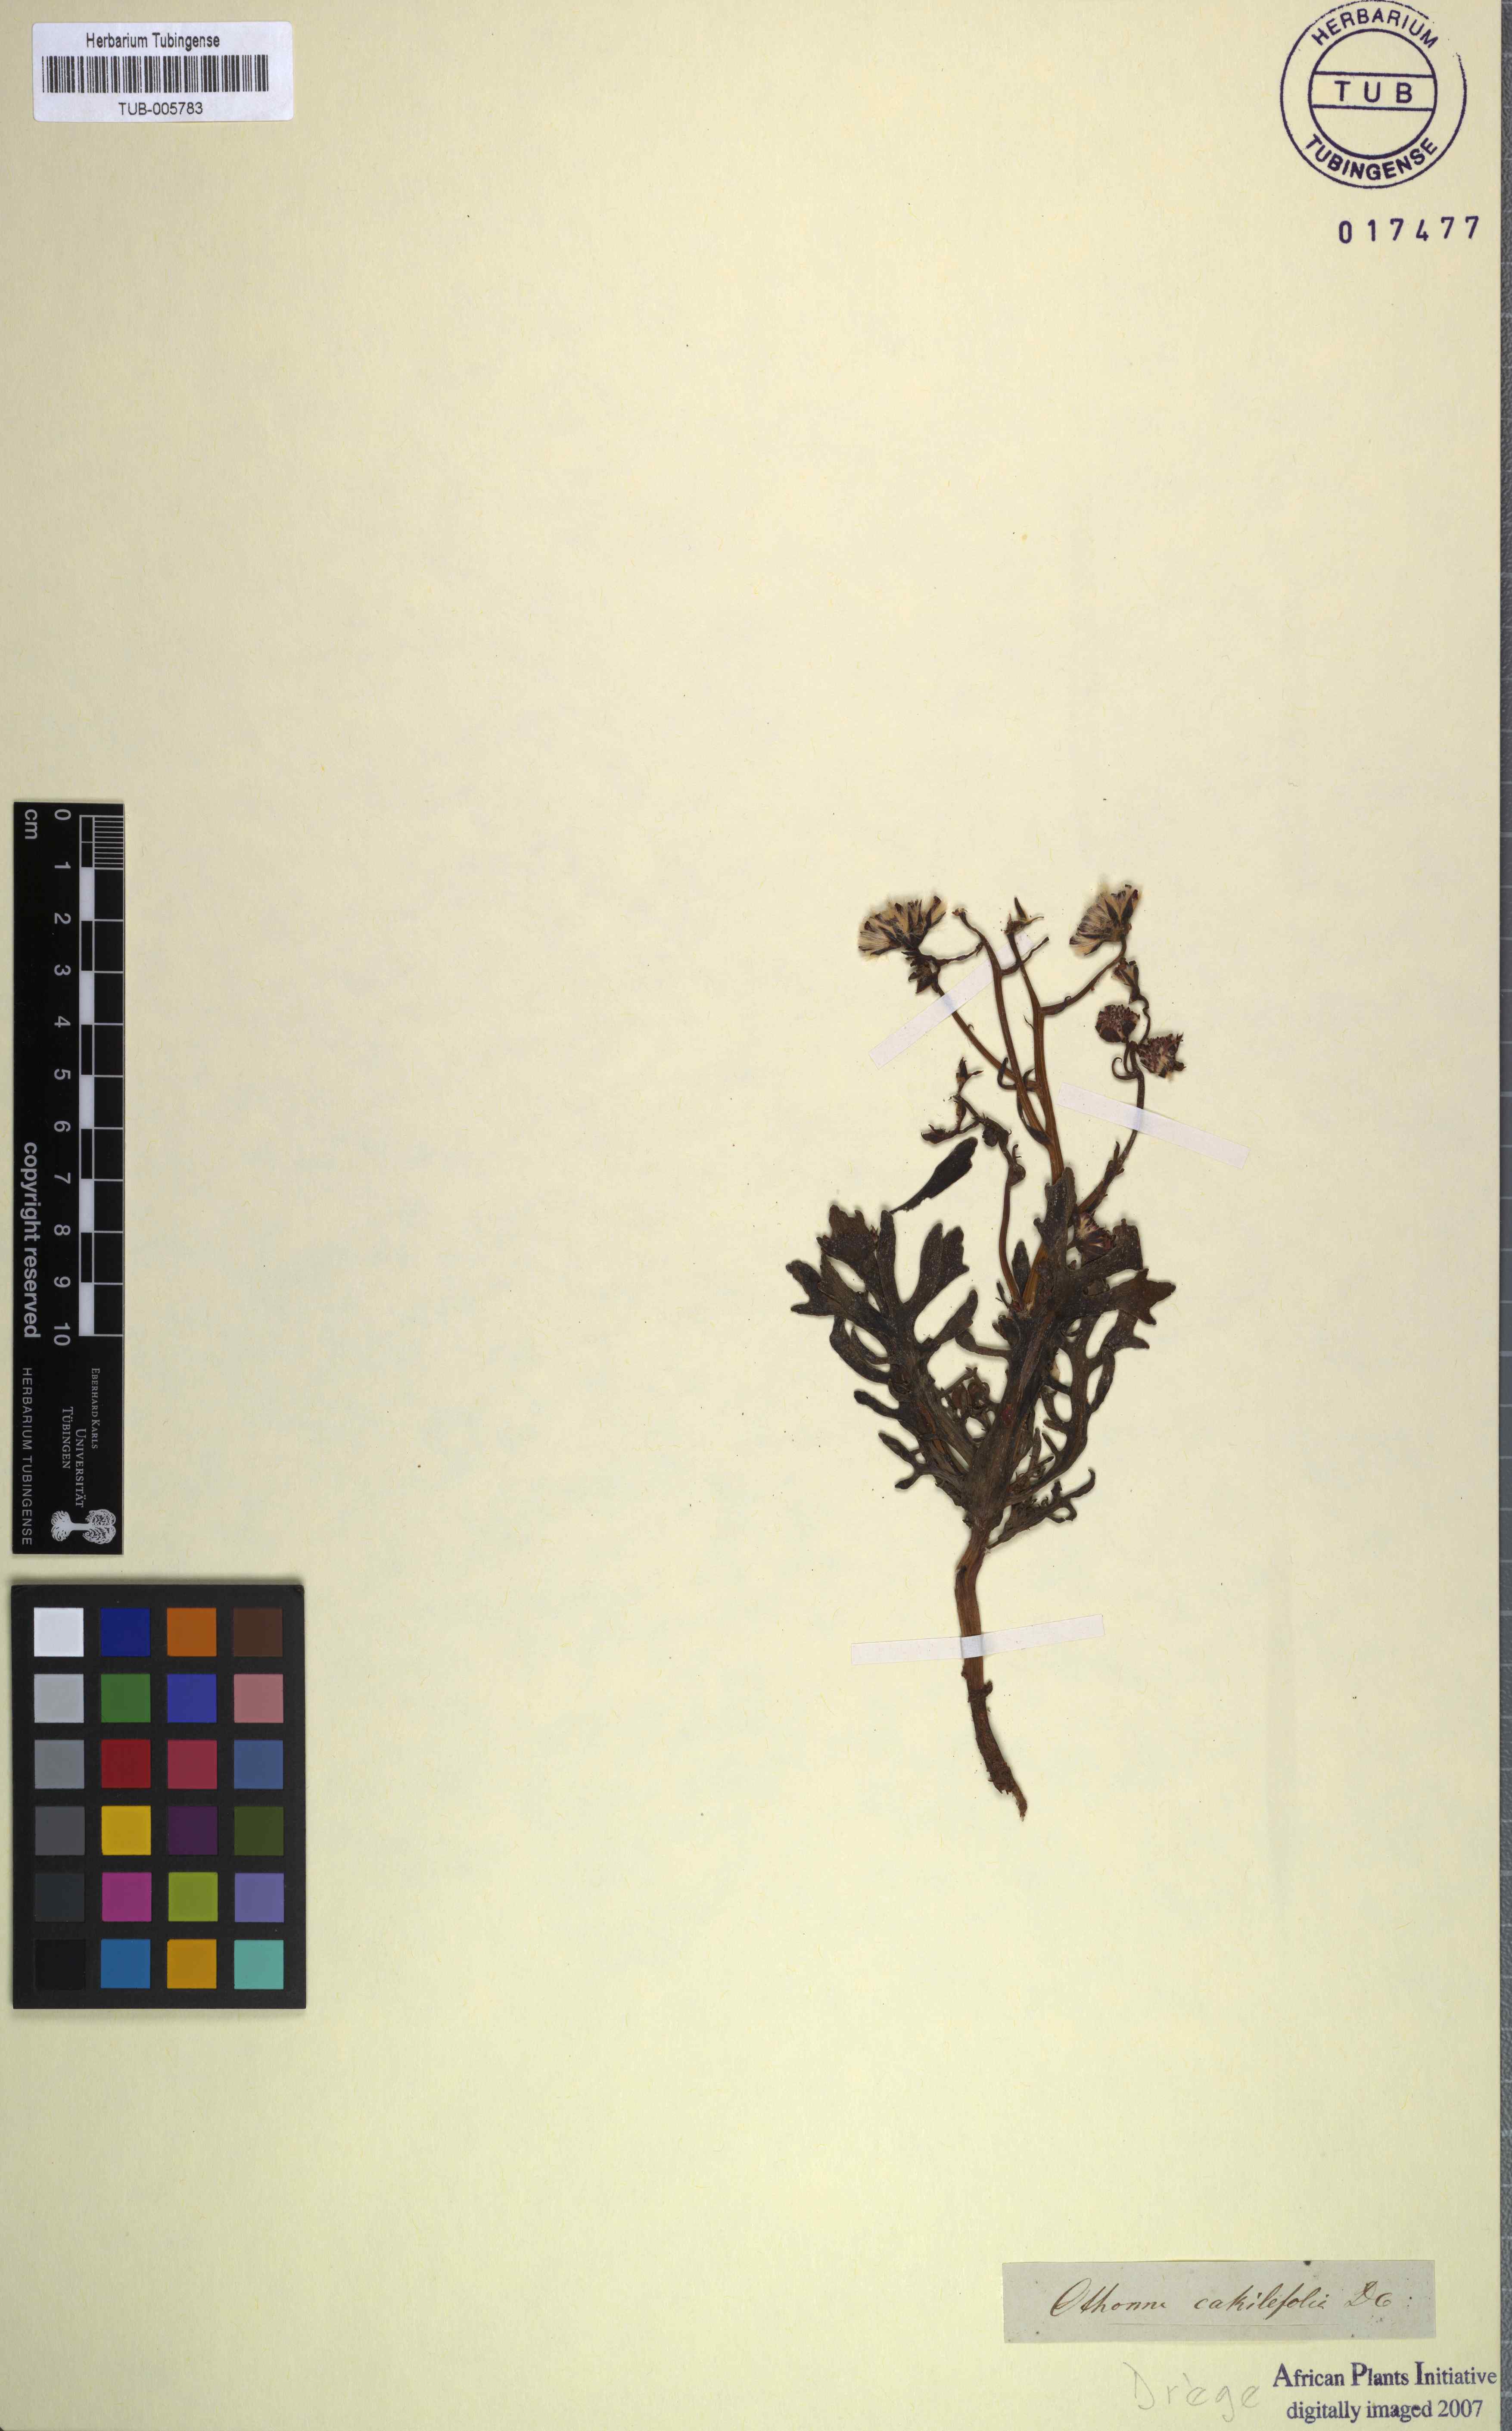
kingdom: Plantae
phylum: Tracheophyta
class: Magnoliopsida
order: Asterales
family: Asteraceae
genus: Othonna
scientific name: Othonna cakilefolia
